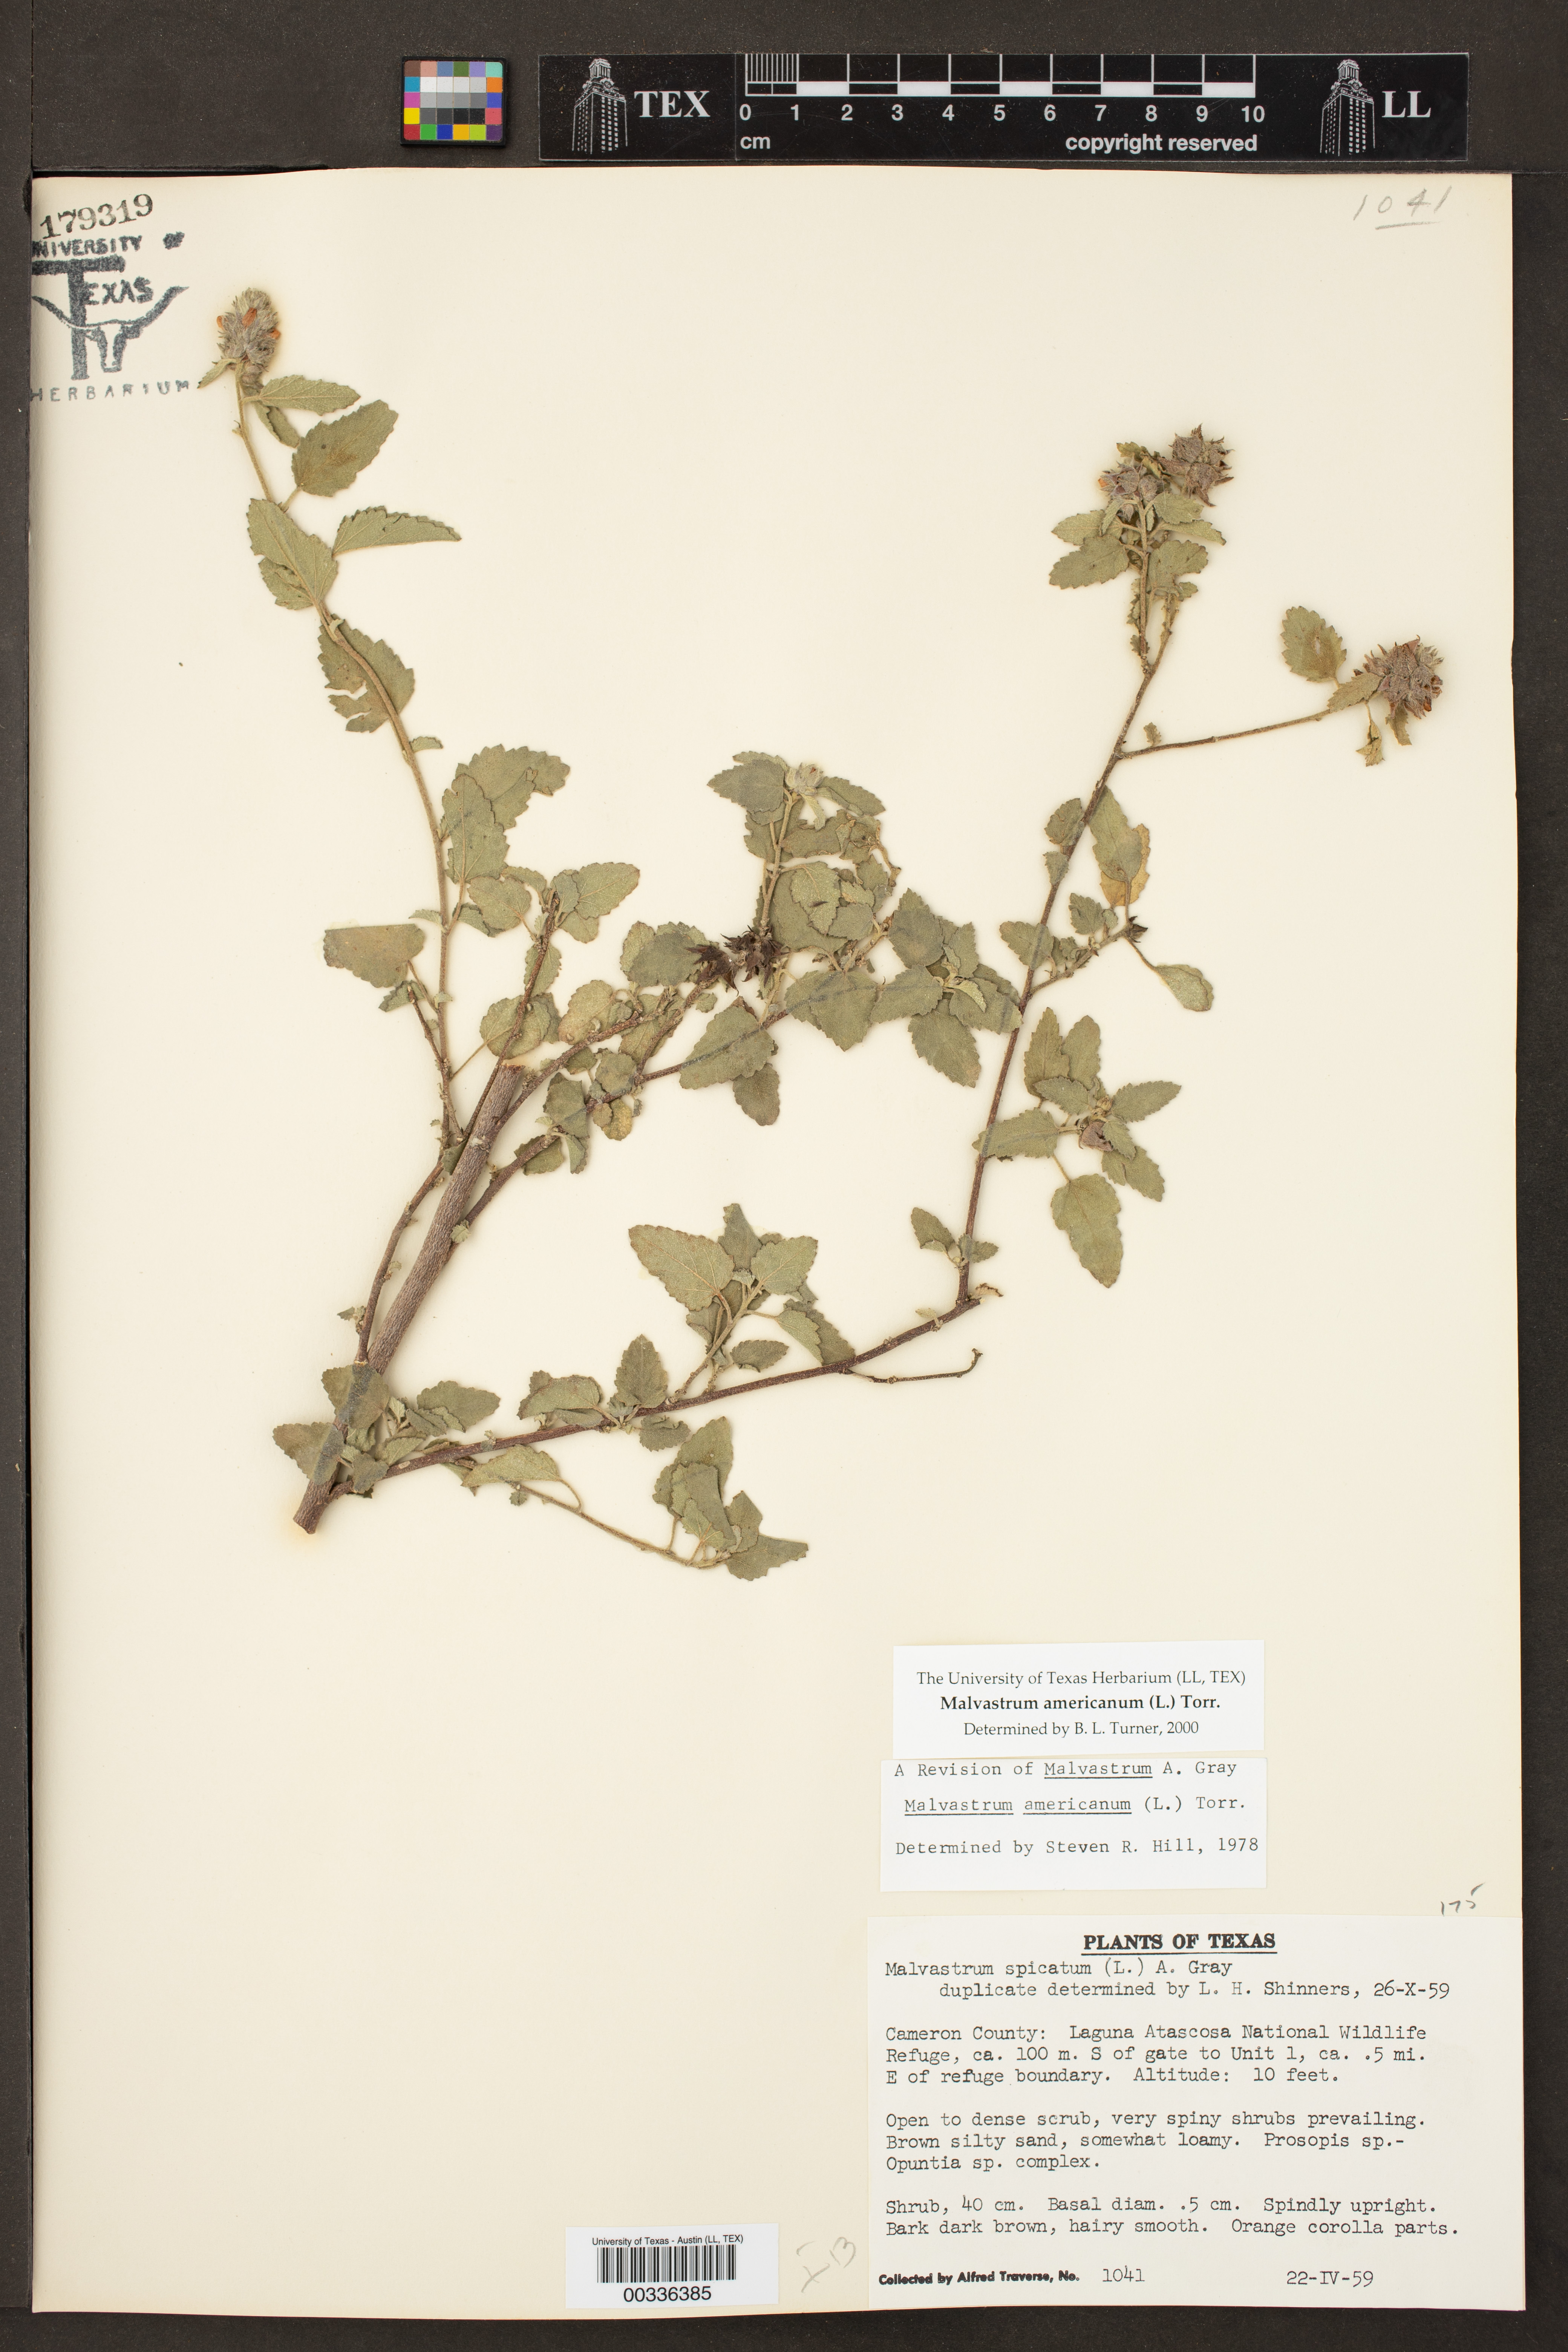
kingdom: Plantae
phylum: Tracheophyta
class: Magnoliopsida
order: Malvales
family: Malvaceae
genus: Malvastrum
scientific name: Malvastrum americanum
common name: Spiked malvastrum
